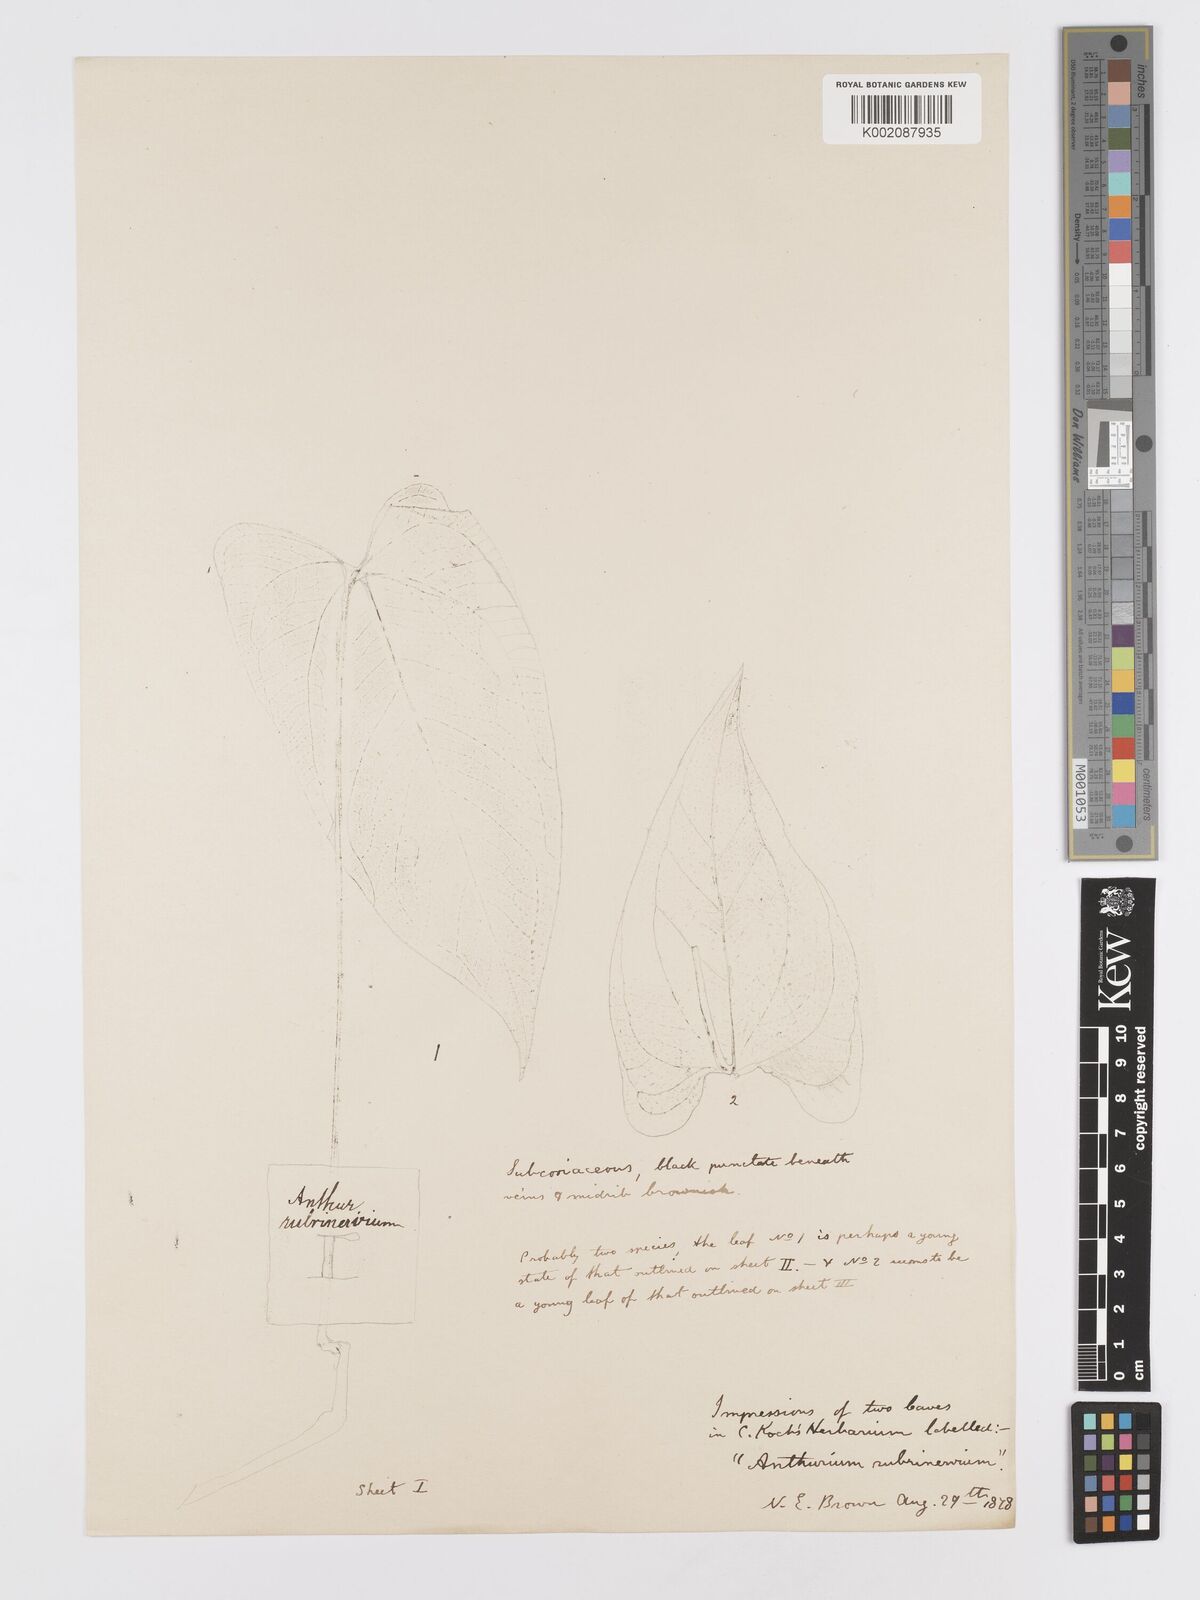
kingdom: Plantae
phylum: Tracheophyta
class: Liliopsida
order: Alismatales
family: Araceae
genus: Anthurium
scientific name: Anthurium sagittatum
